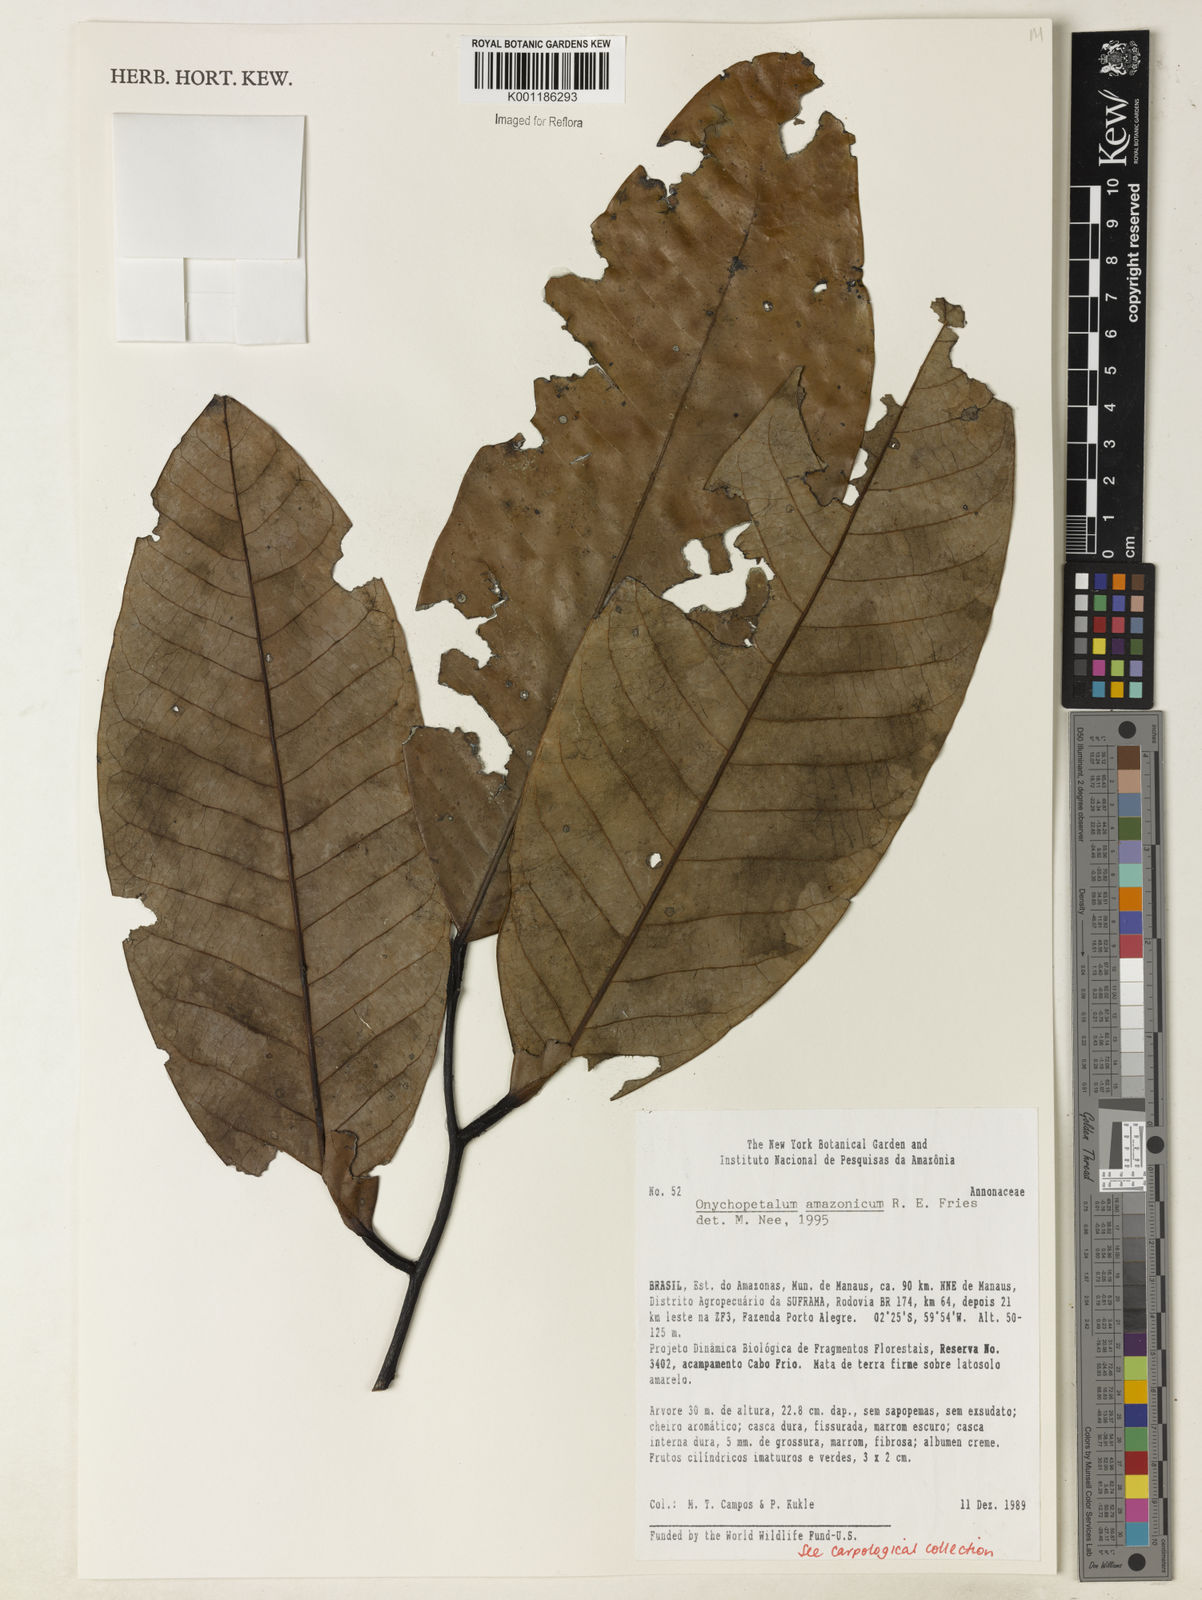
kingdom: Plantae
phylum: Tracheophyta
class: Magnoliopsida
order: Magnoliales
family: Annonaceae
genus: Onychopetalum
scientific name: Onychopetalum amazonicum
